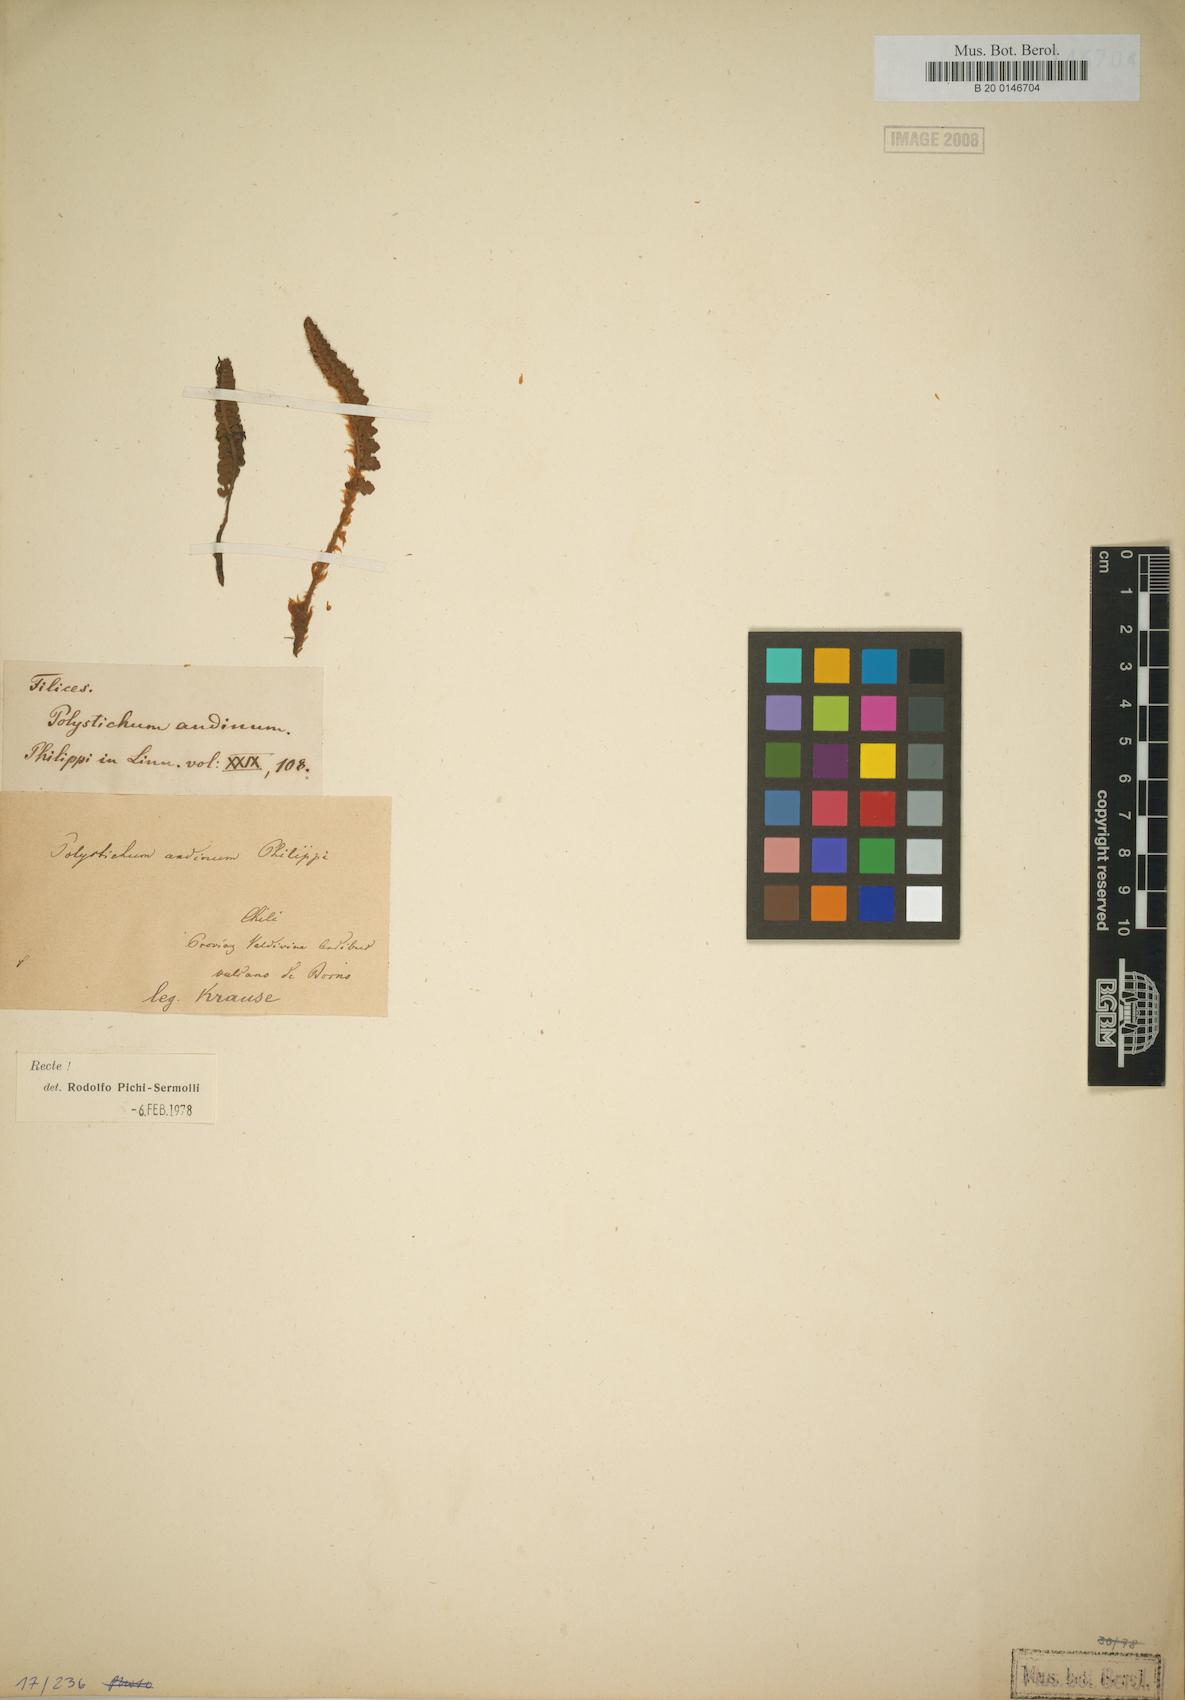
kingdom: Plantae
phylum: Tracheophyta
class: Polypodiopsida
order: Polypodiales
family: Dryopteridaceae
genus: Polystichum
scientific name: Polystichum andinum
